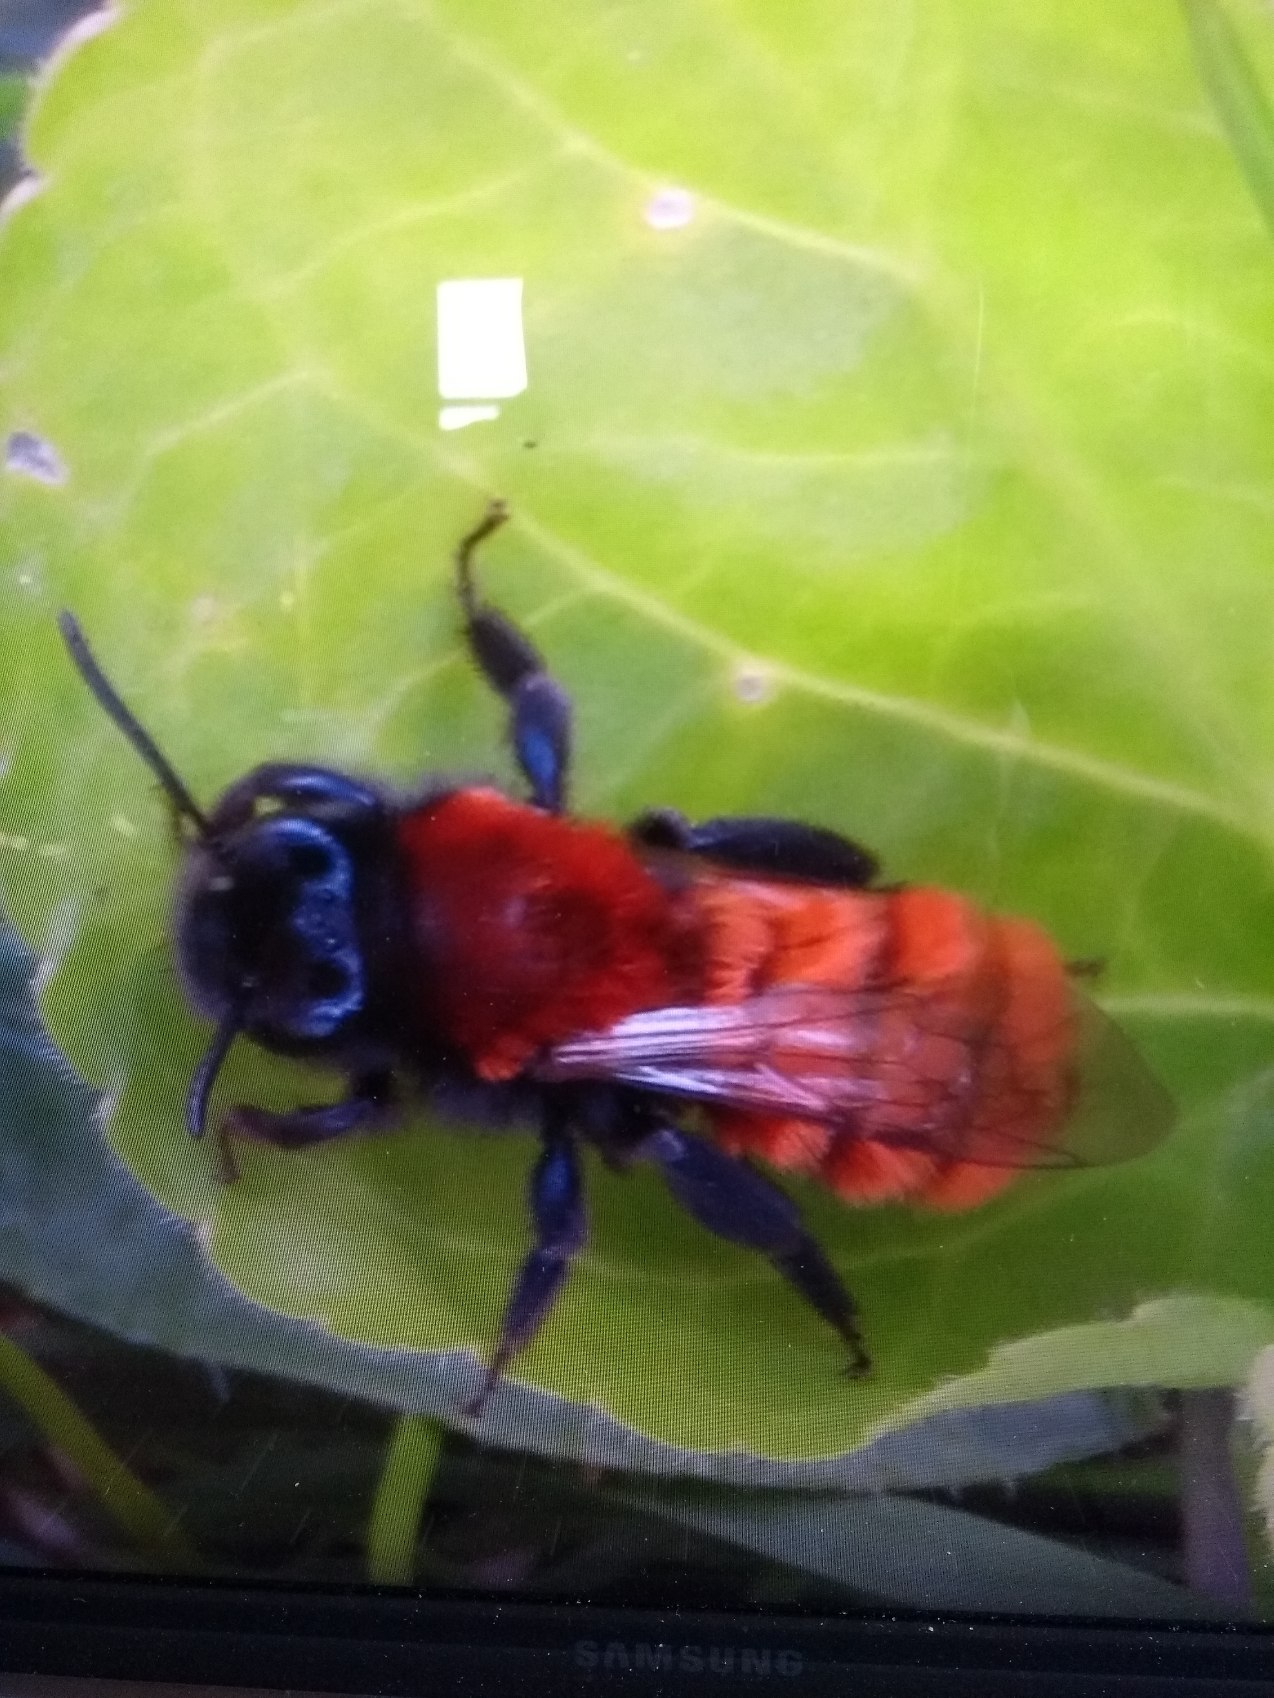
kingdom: Animalia
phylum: Arthropoda
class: Insecta
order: Hymenoptera
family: Andrenidae
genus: Andrena
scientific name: Andrena fulva
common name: Rødpelset jordbi
